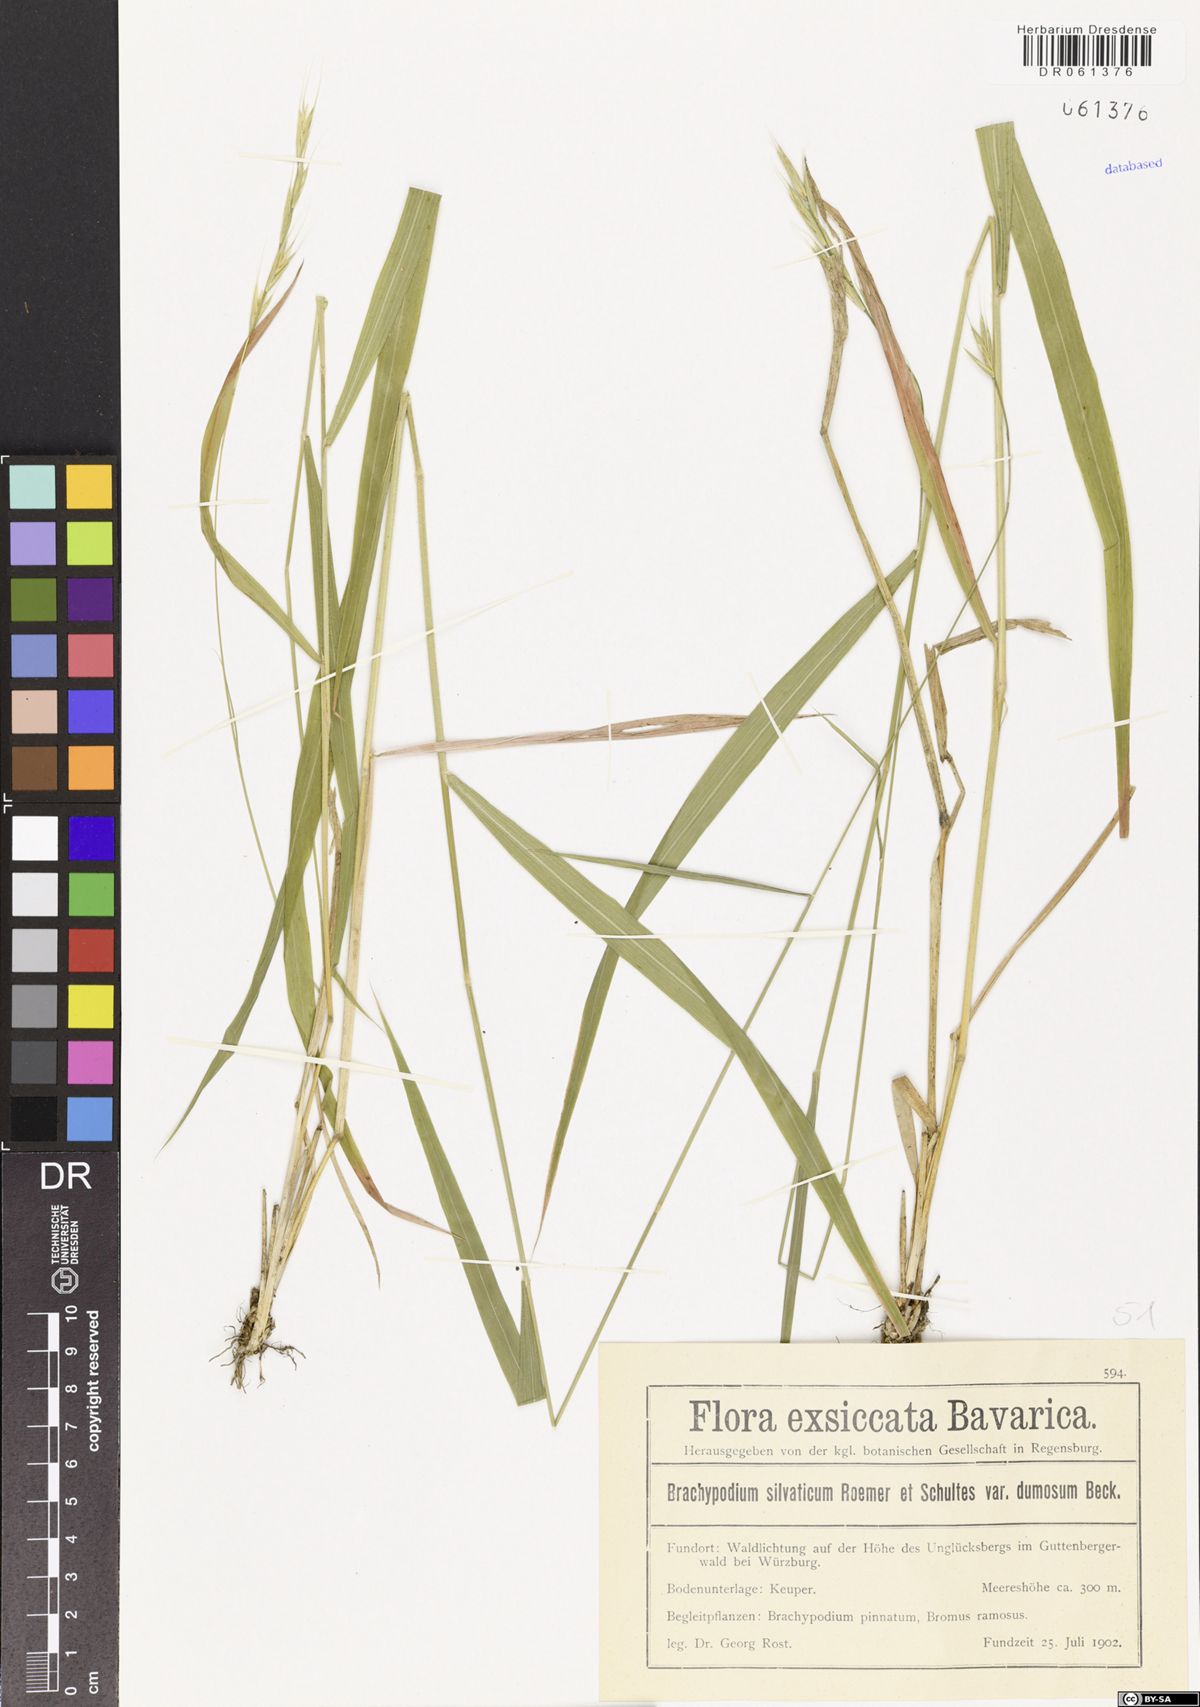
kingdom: Plantae
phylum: Tracheophyta
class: Liliopsida
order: Poales
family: Poaceae
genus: Brachypodium
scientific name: Brachypodium sylvaticum
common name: False-brome
